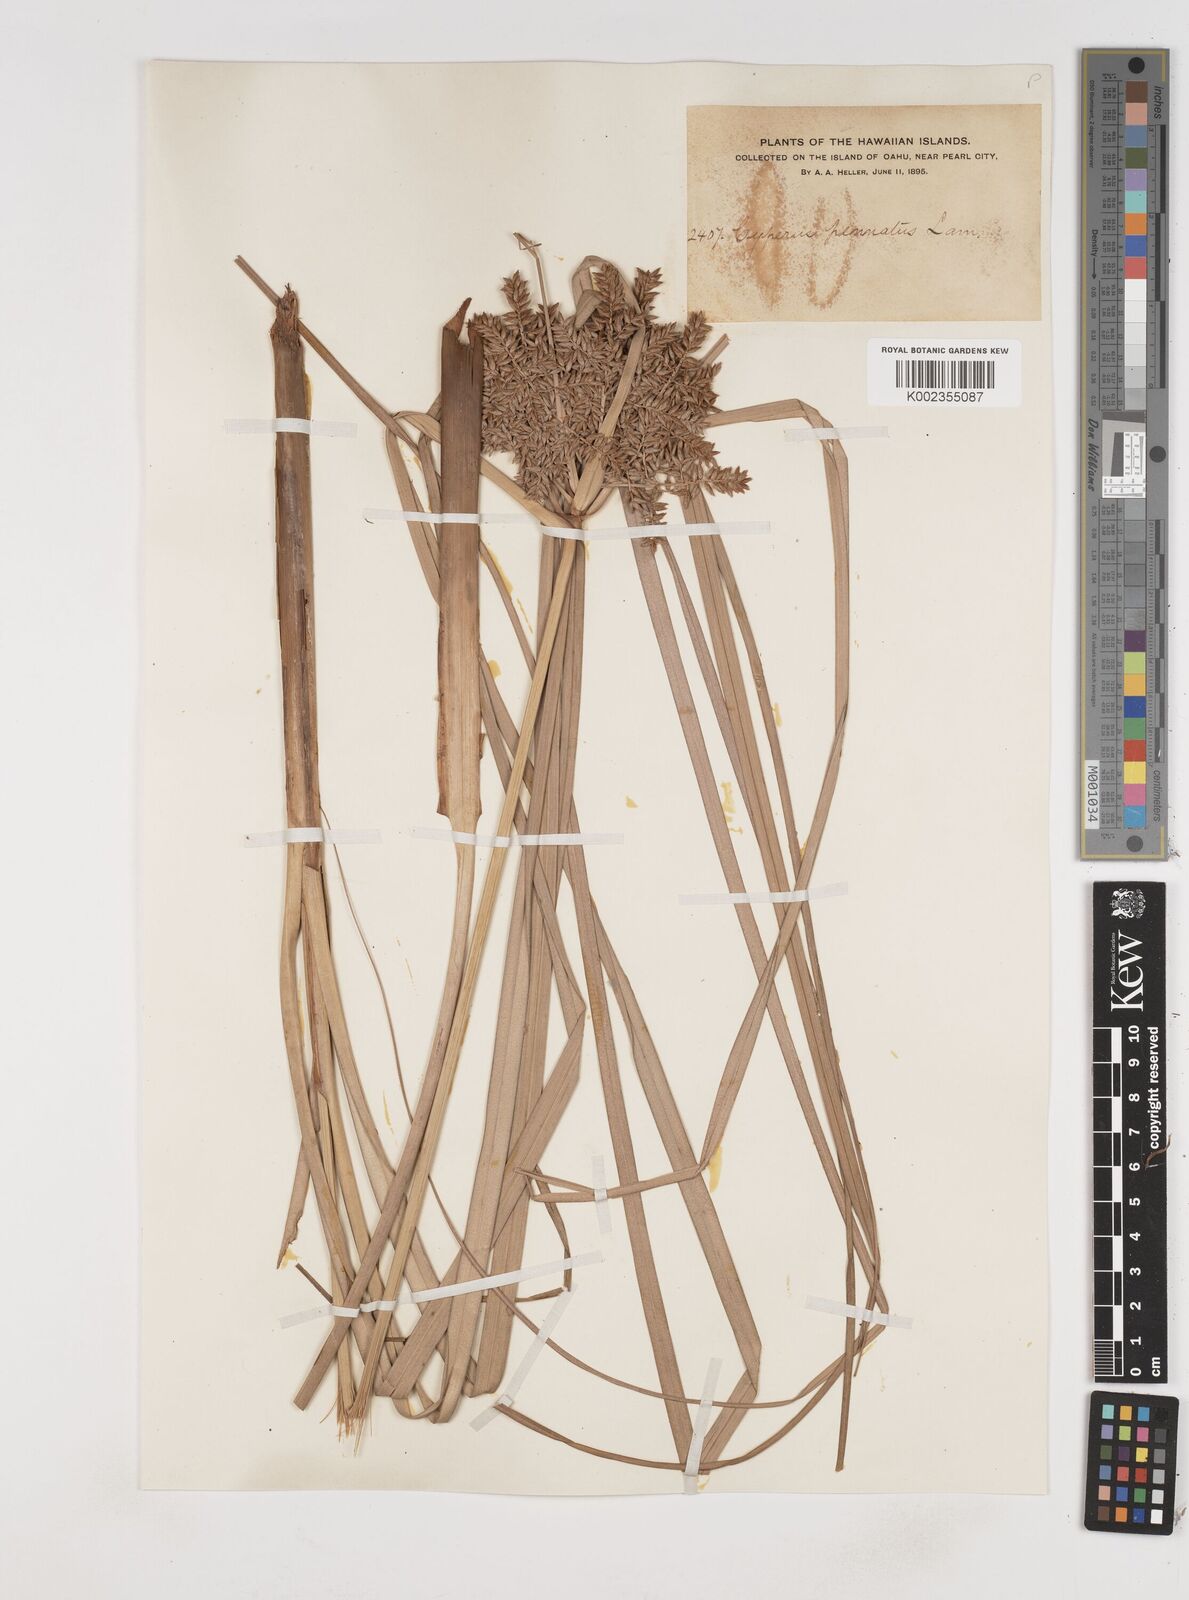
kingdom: Plantae
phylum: Tracheophyta
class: Liliopsida
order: Poales
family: Cyperaceae
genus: Cyperus
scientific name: Cyperus javanicus
